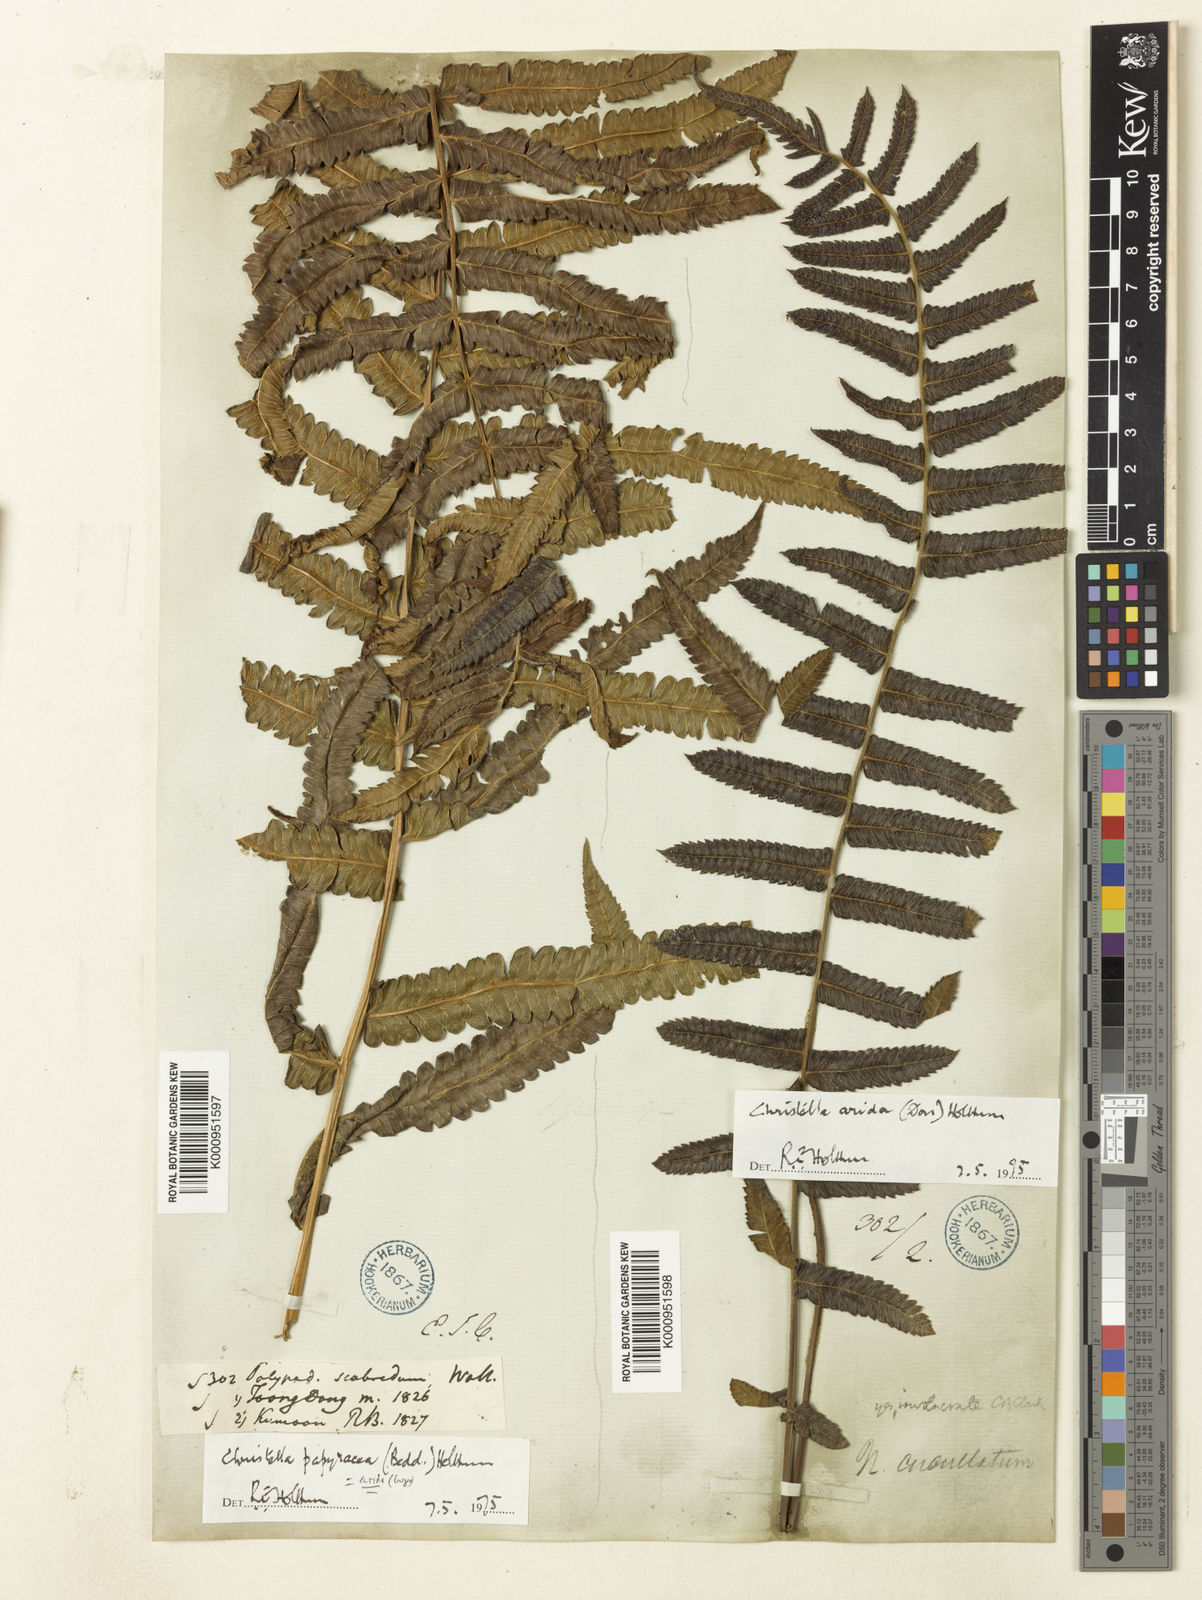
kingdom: Plantae
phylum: Tracheophyta
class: Polypodiopsida
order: Polypodiales
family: Thelypteridaceae
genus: Christella
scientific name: Christella arida
